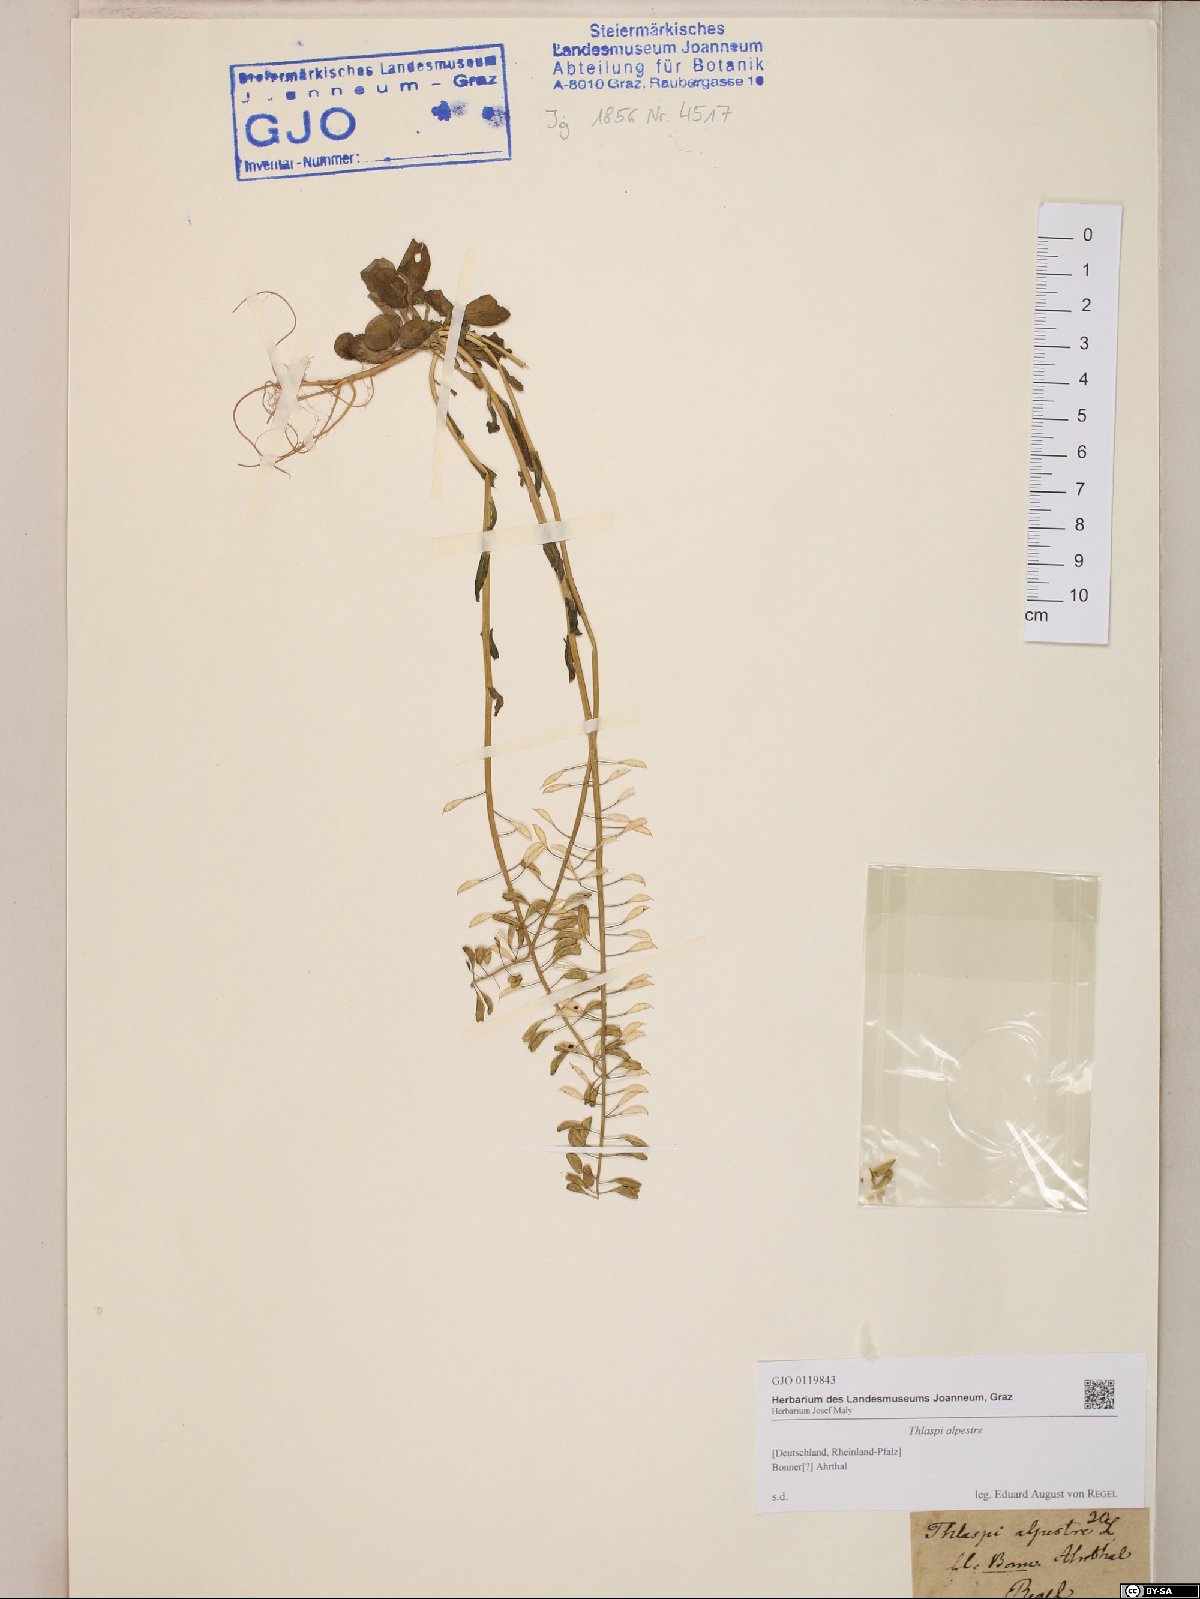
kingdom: Plantae
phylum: Tracheophyta
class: Magnoliopsida
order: Brassicales
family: Brassicaceae
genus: Noccaea
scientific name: Noccaea alpestris
